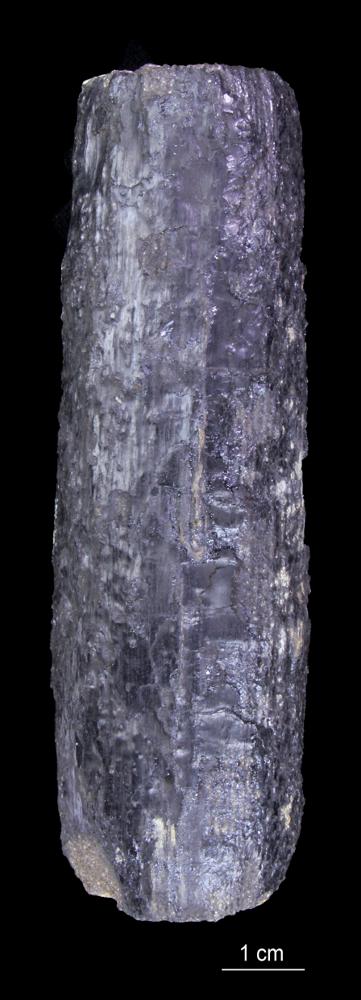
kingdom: Plantae
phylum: Tracheophyta
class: Polypodiopsida
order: Equisetales
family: Calamitaceae
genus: Calamites
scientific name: Calamites
